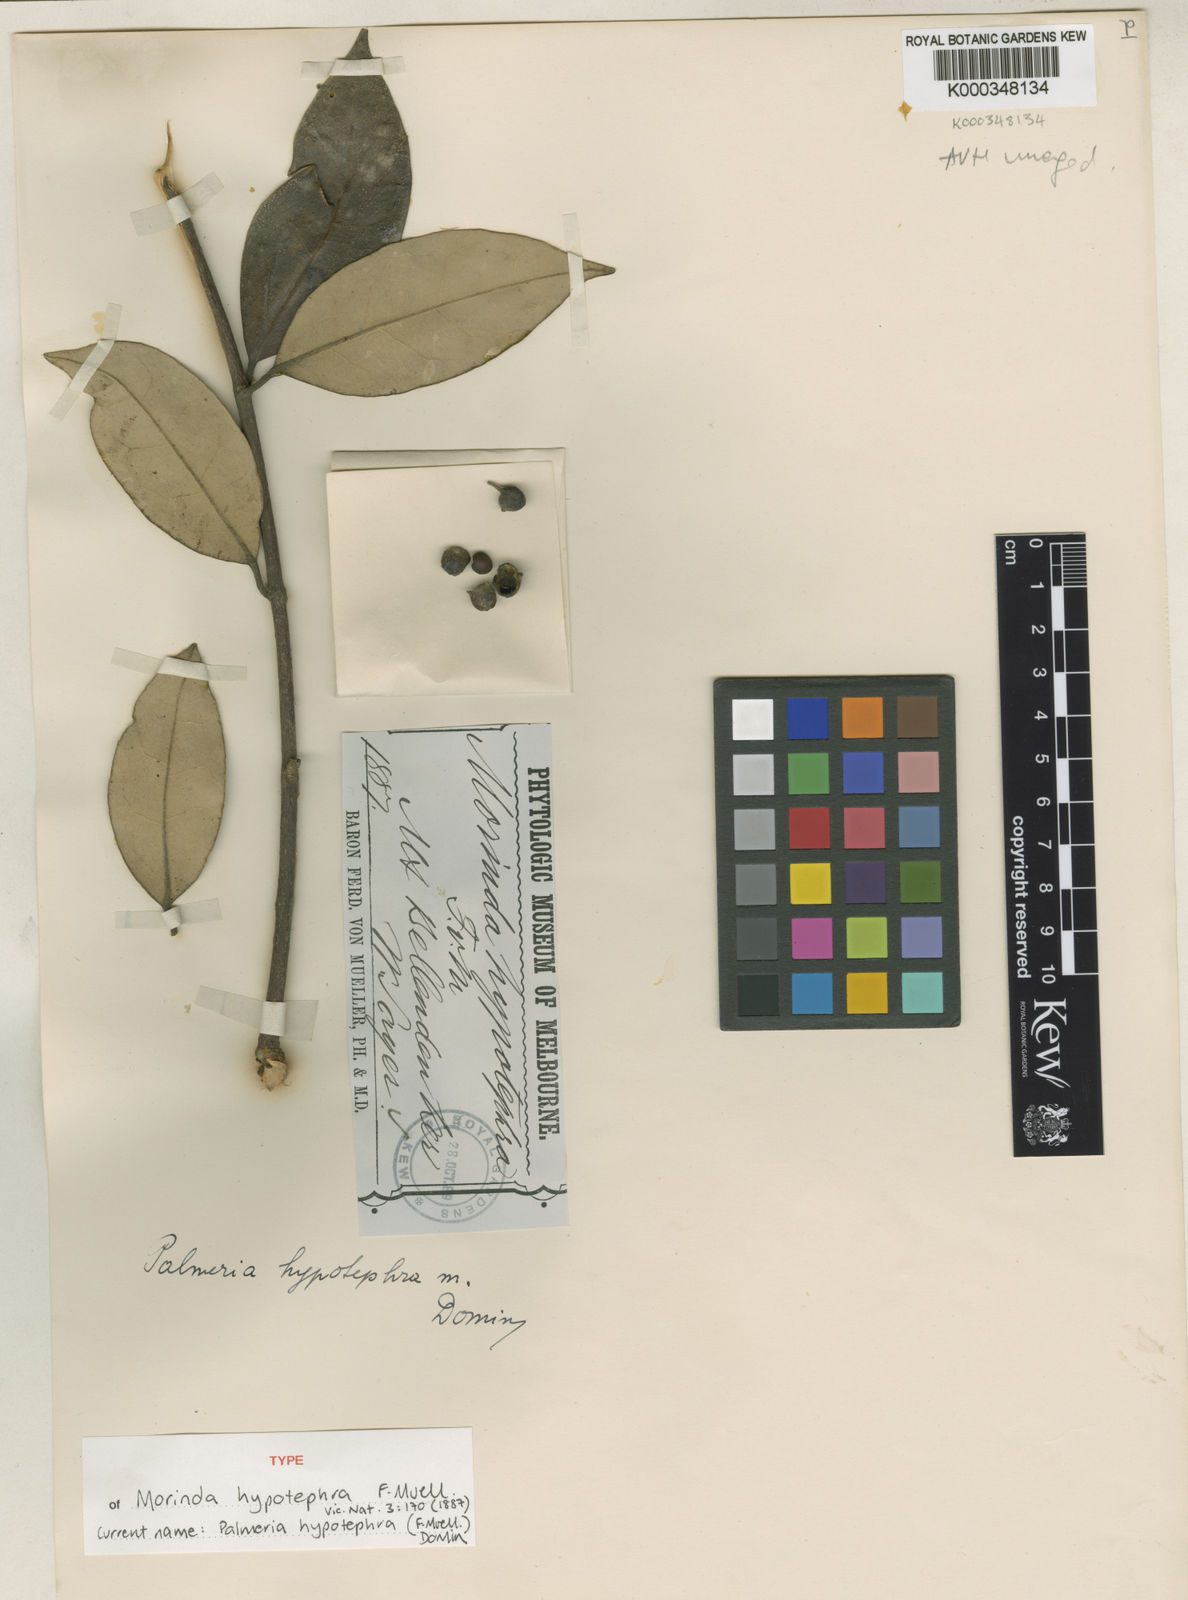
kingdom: Plantae
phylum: Tracheophyta
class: Magnoliopsida
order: Laurales
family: Monimiaceae
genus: Palmeria
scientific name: Palmeria hypotephra
